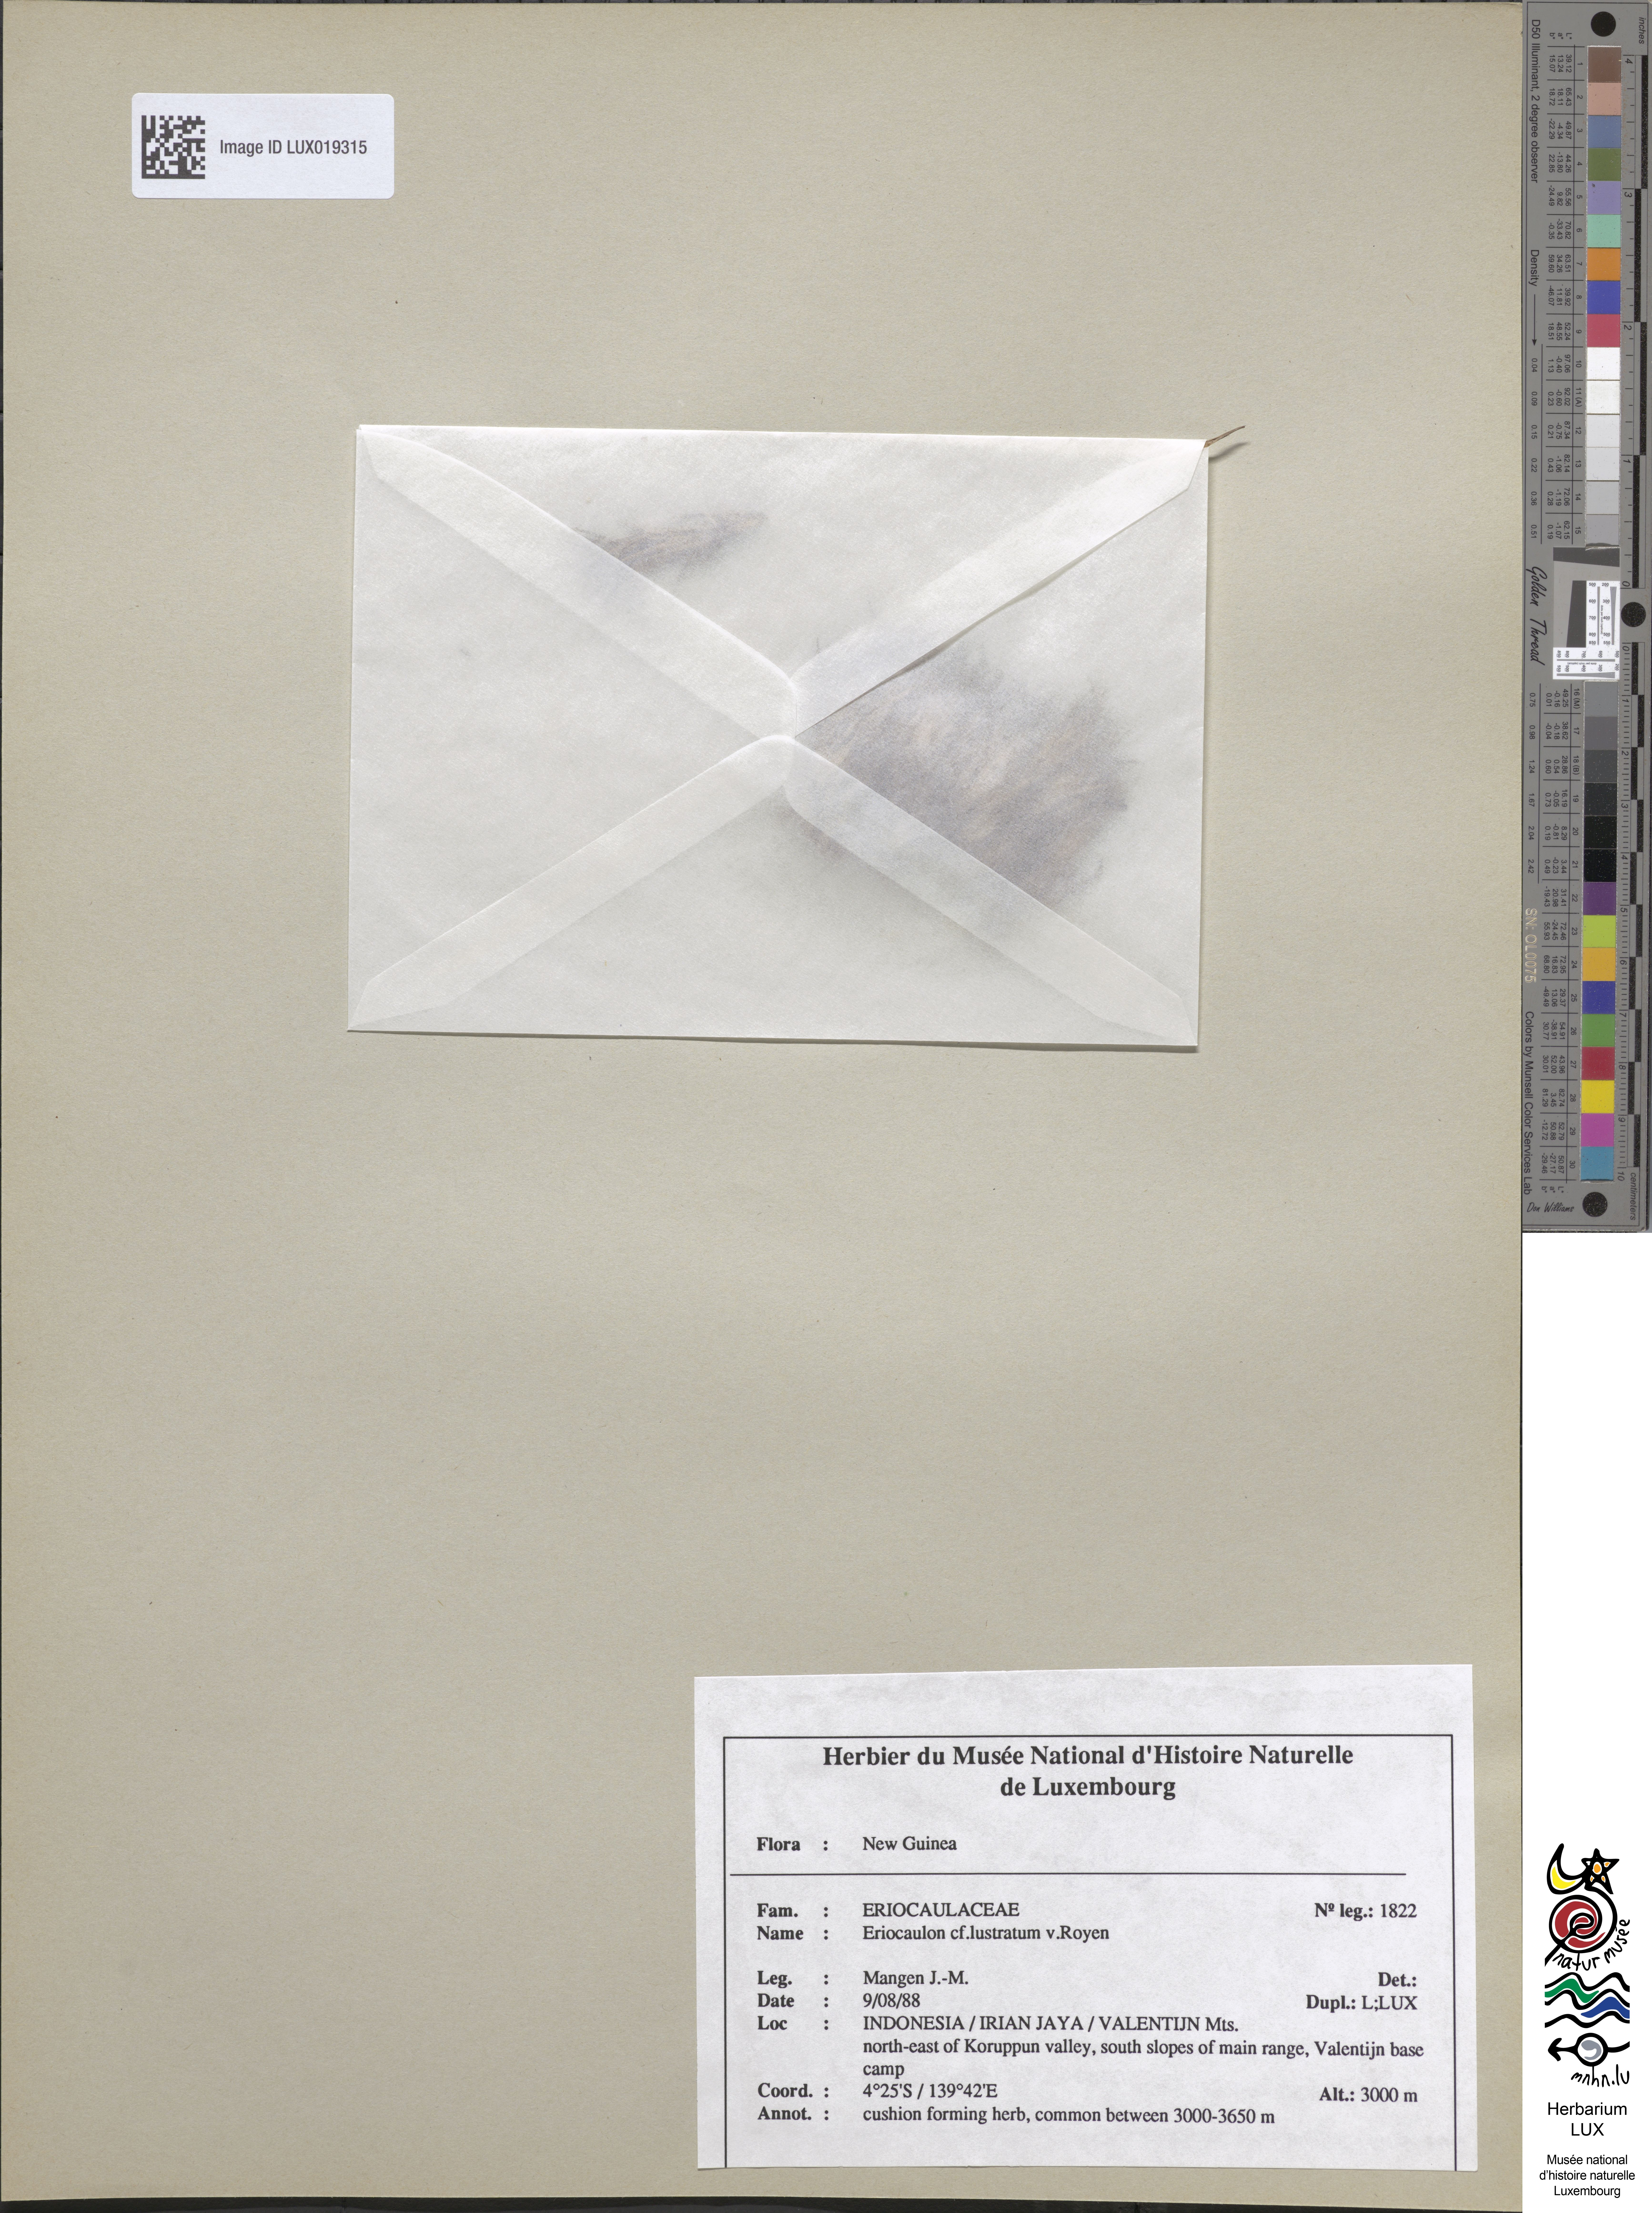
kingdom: Plantae
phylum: Tracheophyta
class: Liliopsida
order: Poales
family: Eriocaulaceae
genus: Eriocaulon
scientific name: Eriocaulon lustratum
